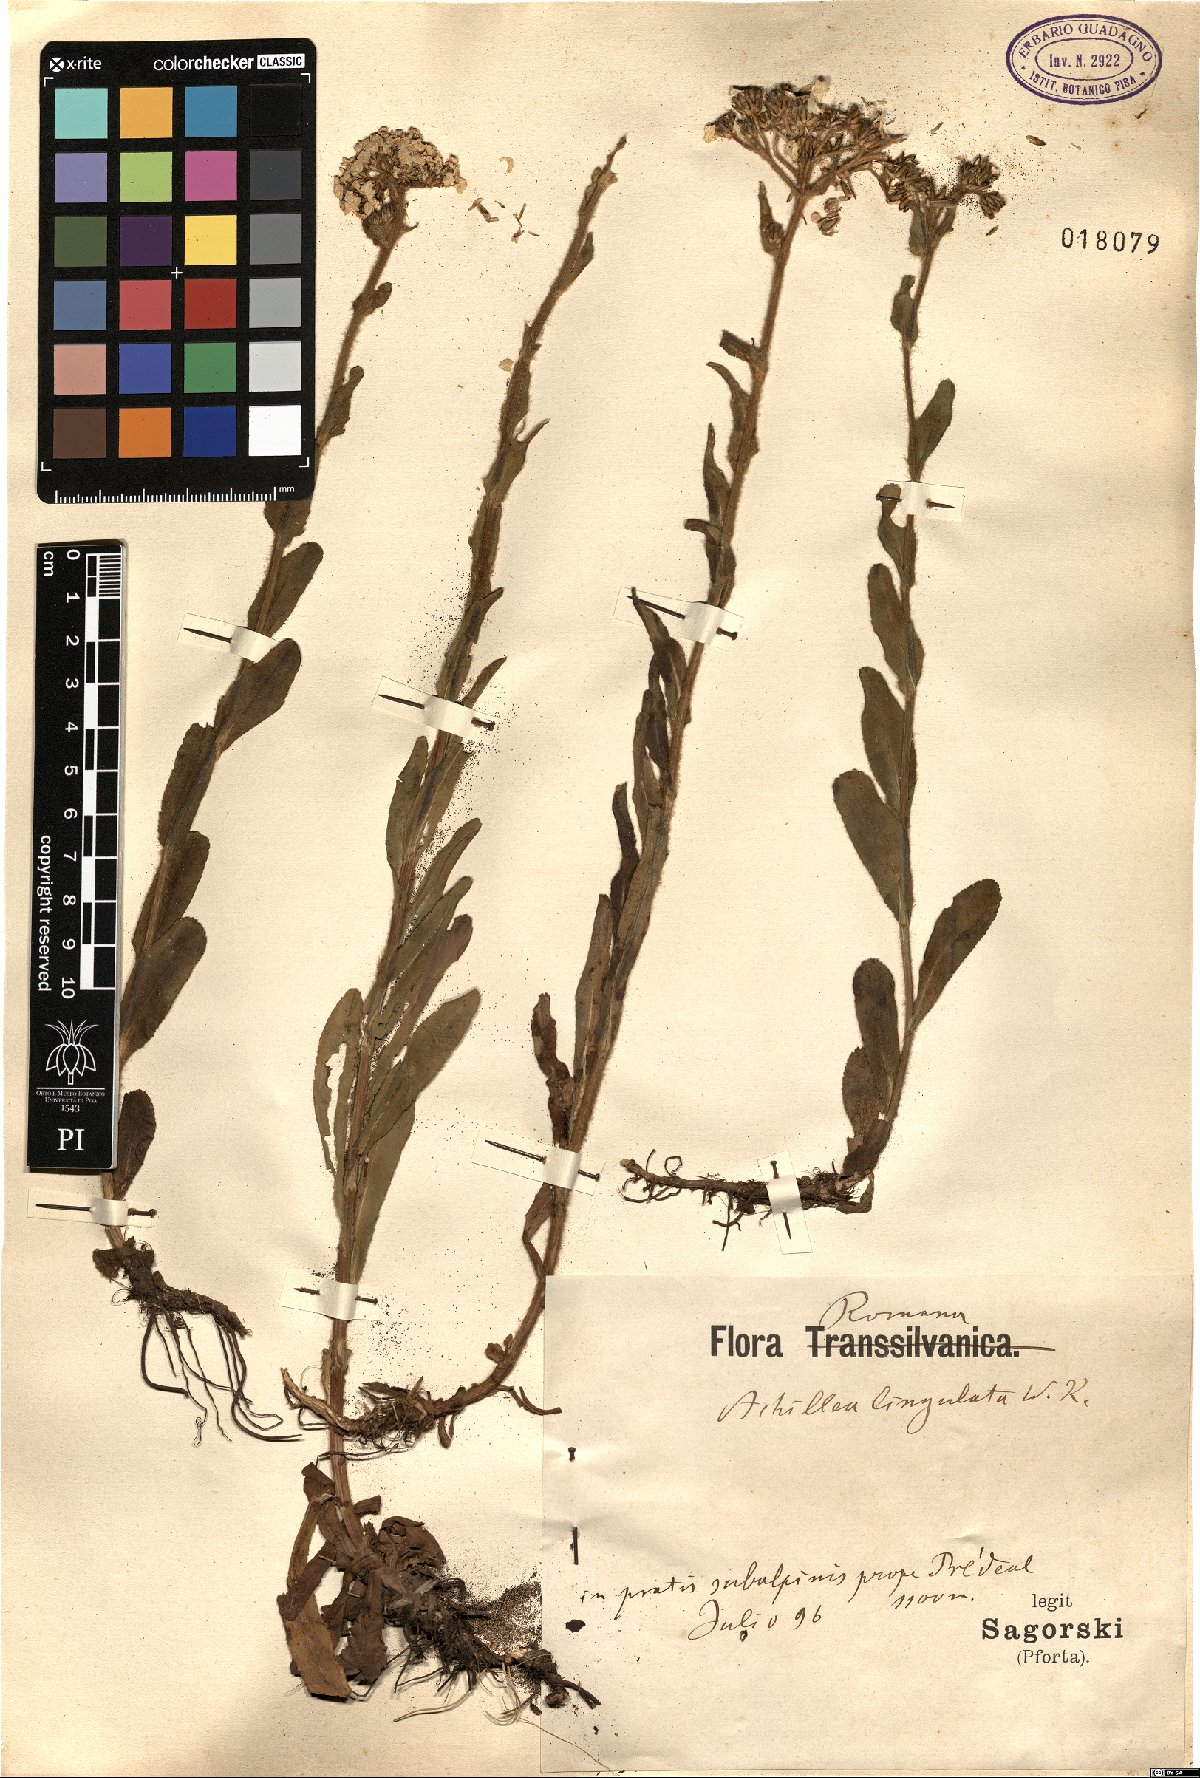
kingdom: Plantae
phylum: Tracheophyta
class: Magnoliopsida
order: Asterales
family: Asteraceae
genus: Achillea
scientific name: Achillea lingulata
